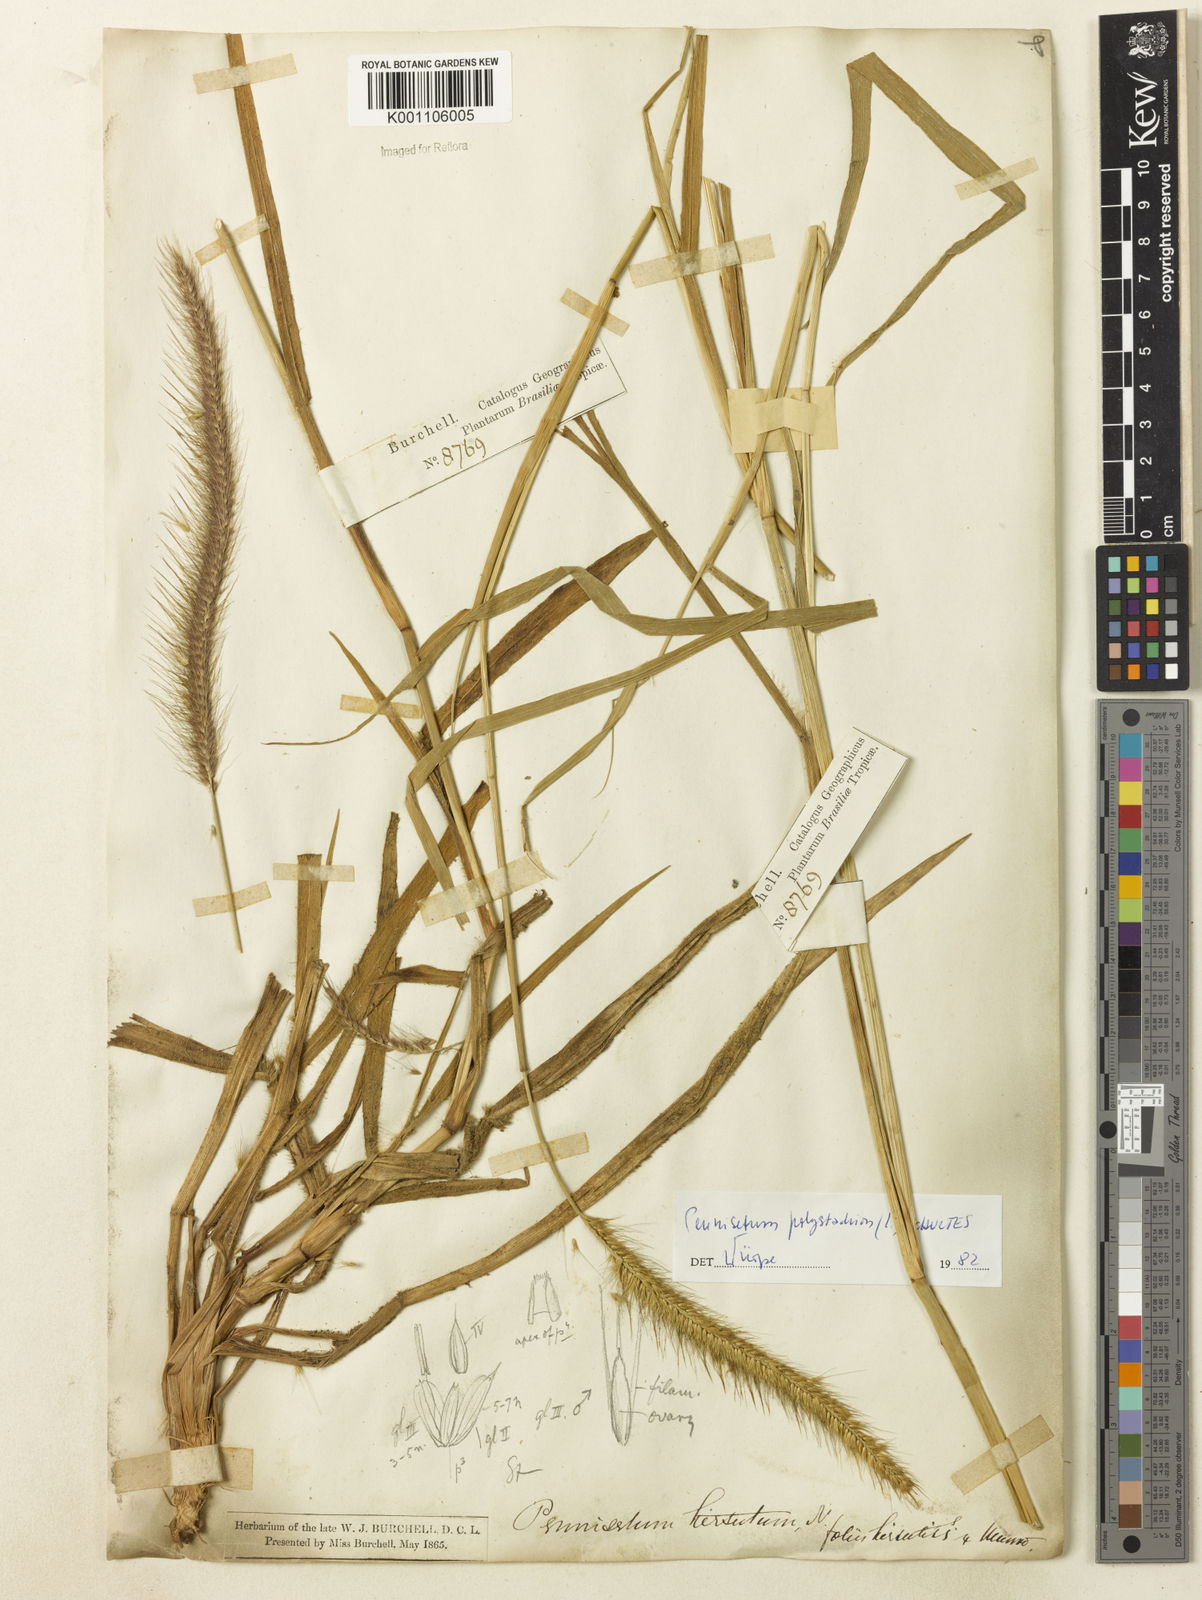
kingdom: Plantae
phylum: Tracheophyta
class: Liliopsida
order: Poales
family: Poaceae
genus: Setaria
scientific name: Setaria parviflora
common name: Knotroot bristle-grass
